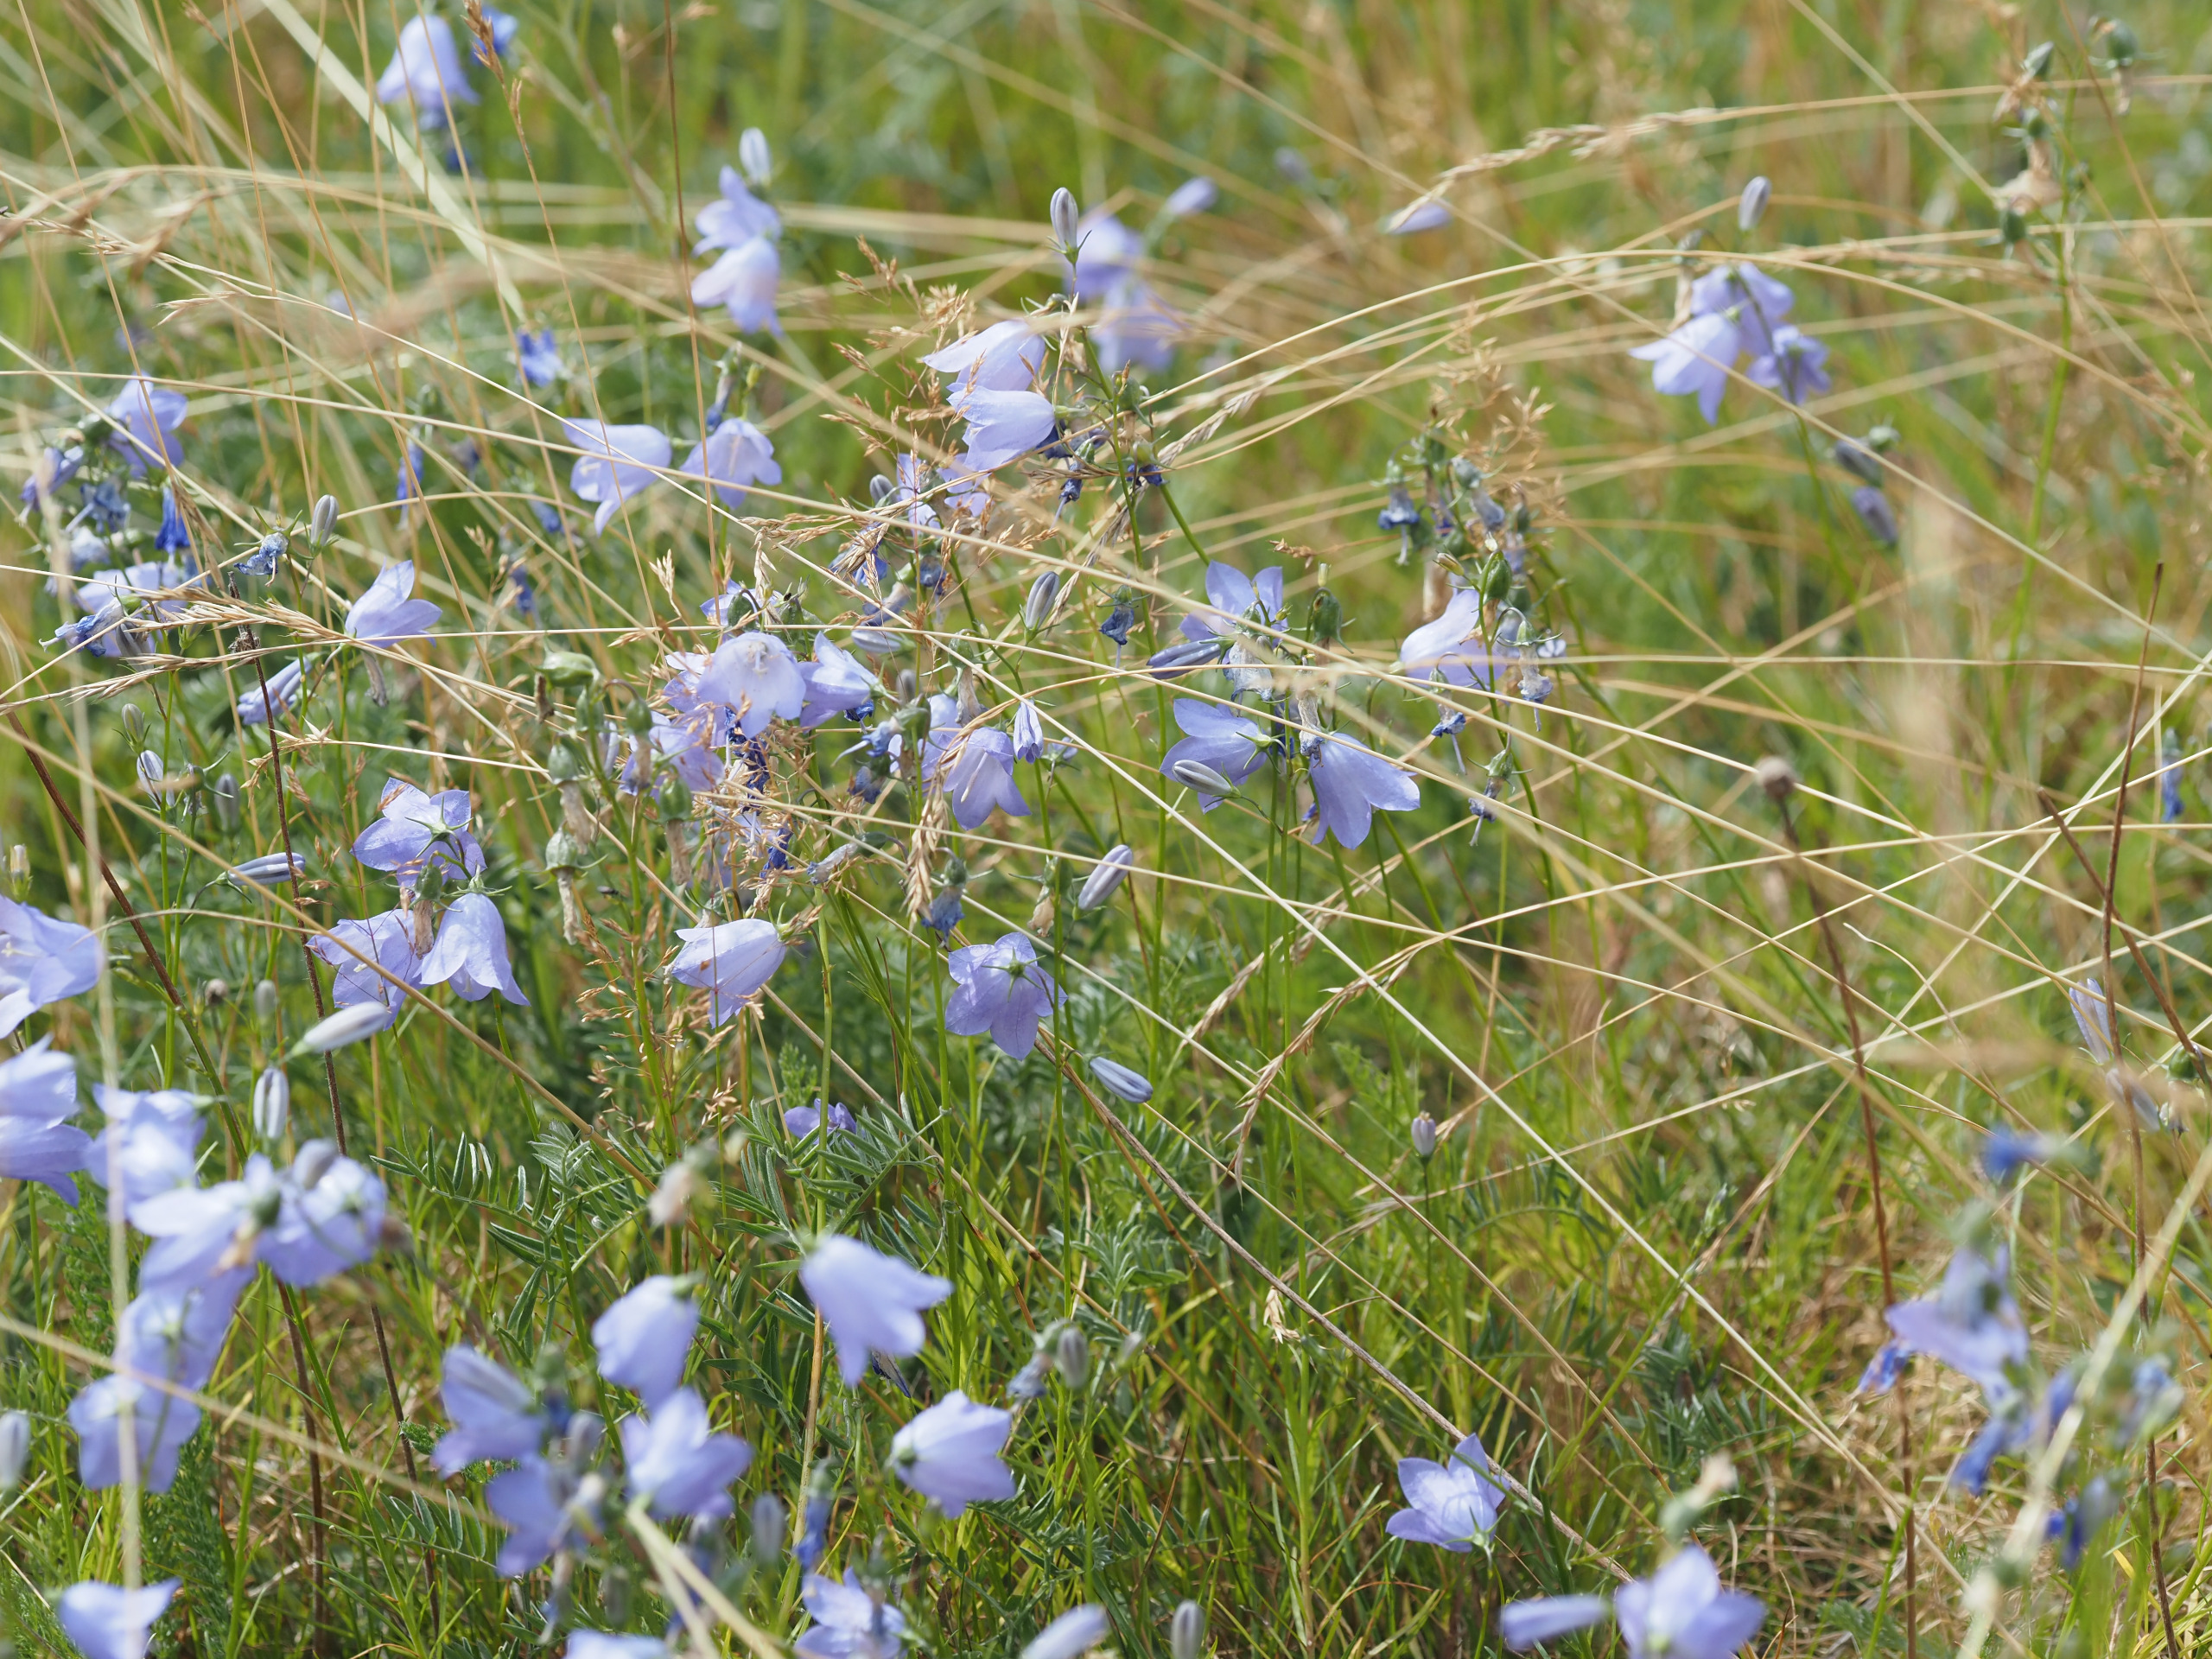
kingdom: Plantae
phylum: Tracheophyta
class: Magnoliopsida
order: Asterales
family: Campanulaceae
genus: Campanula
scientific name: Campanula rotundifolia
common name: Liden klokke
